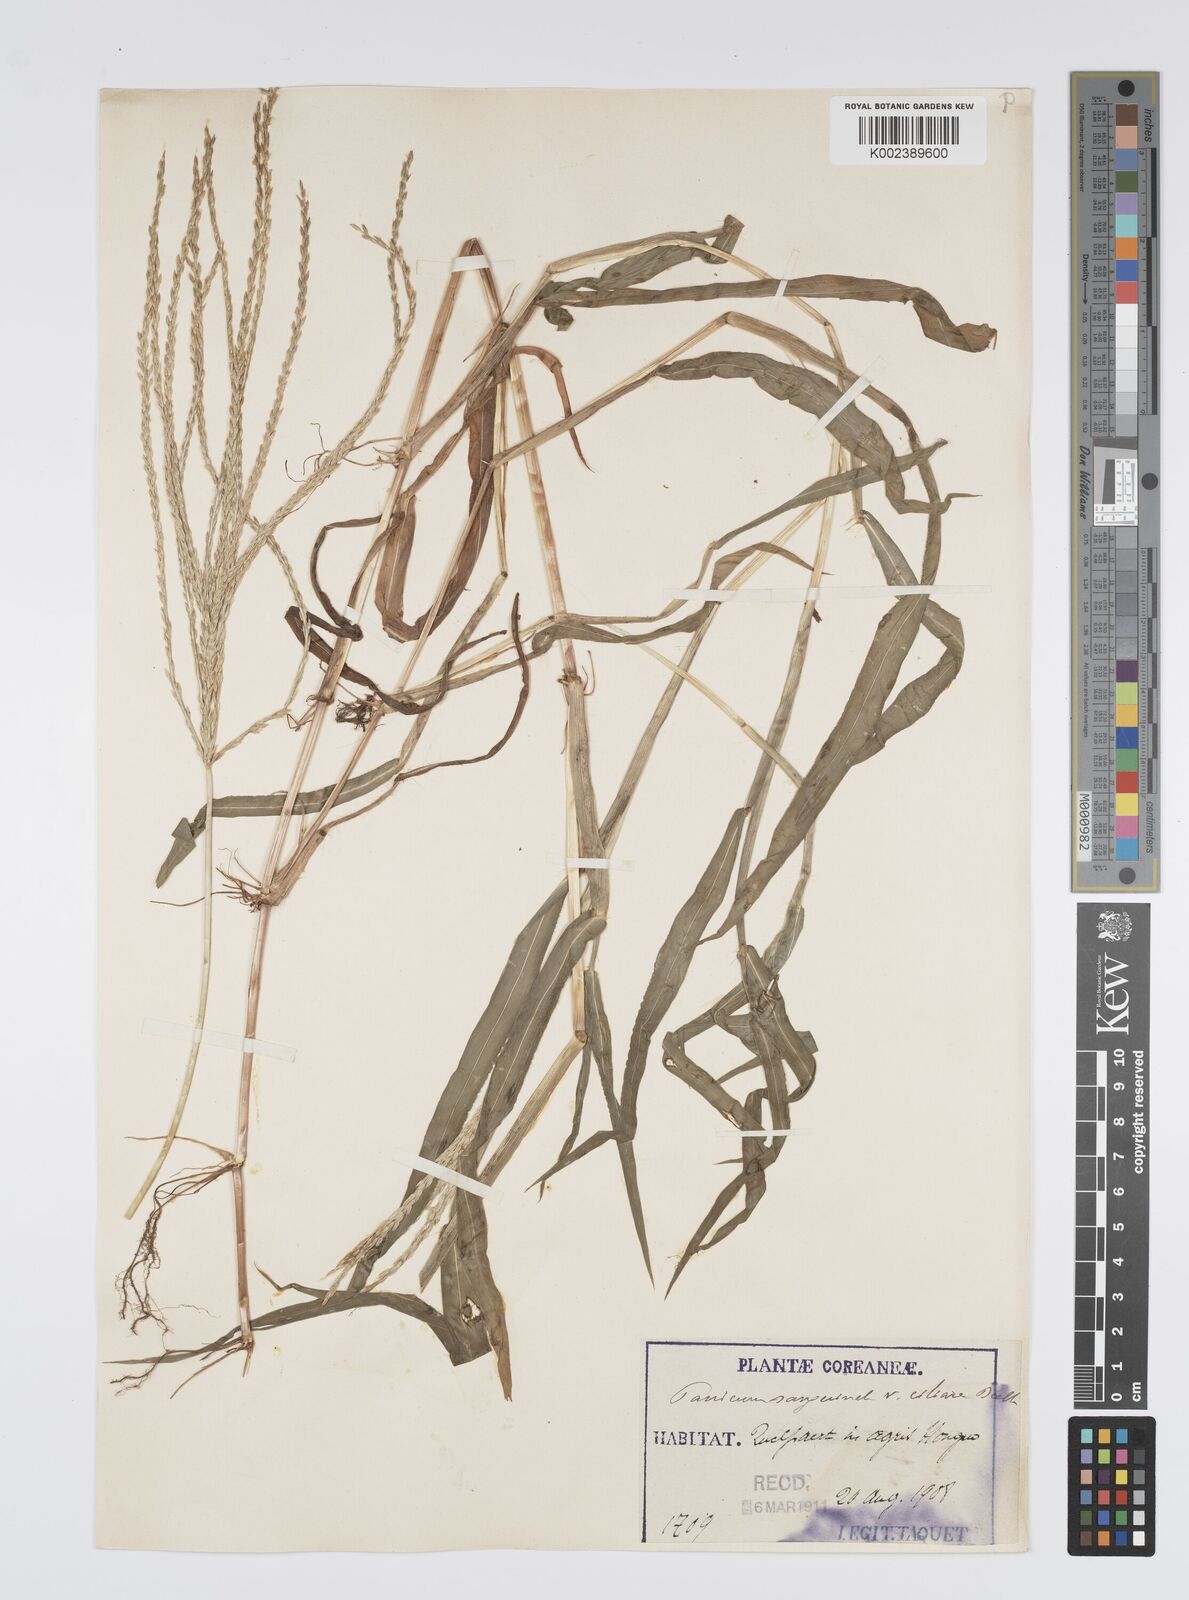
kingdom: Plantae
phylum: Tracheophyta
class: Liliopsida
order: Poales
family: Poaceae
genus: Digitaria
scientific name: Digitaria ciliaris
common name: Tropical finger-grass
